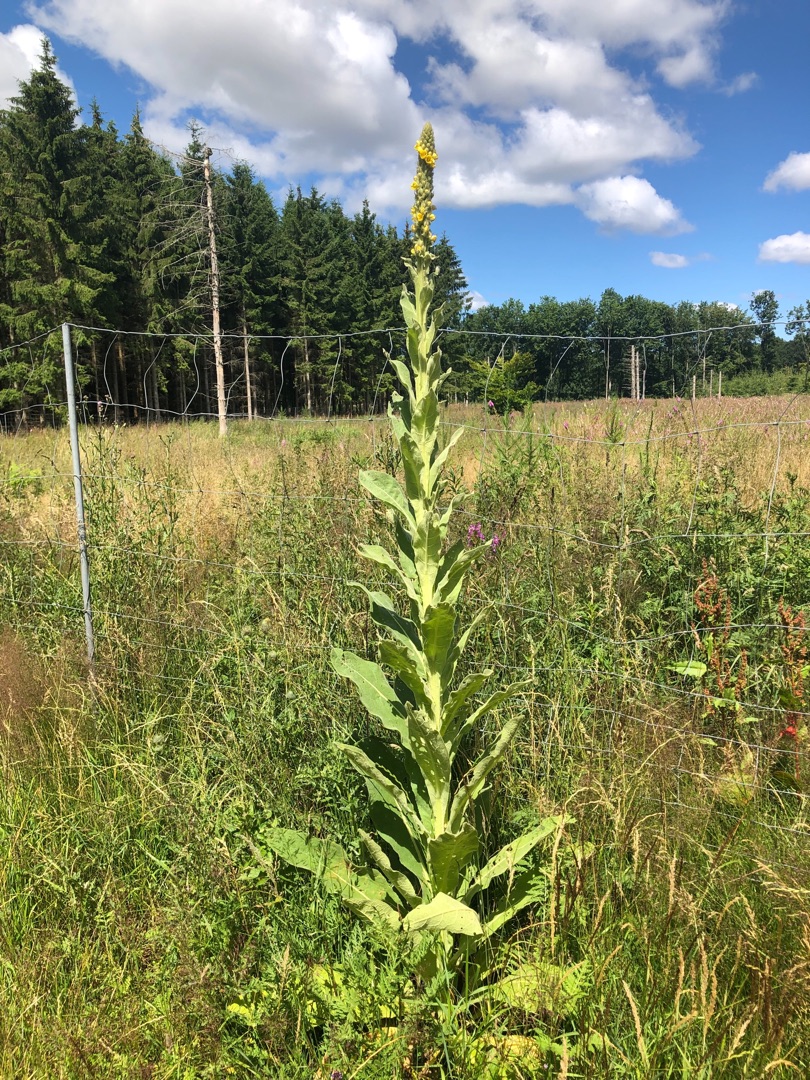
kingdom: Plantae
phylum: Tracheophyta
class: Magnoliopsida
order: Lamiales
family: Scrophulariaceae
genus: Verbascum
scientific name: Verbascum thapsus
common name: Filtbladet kongelys
